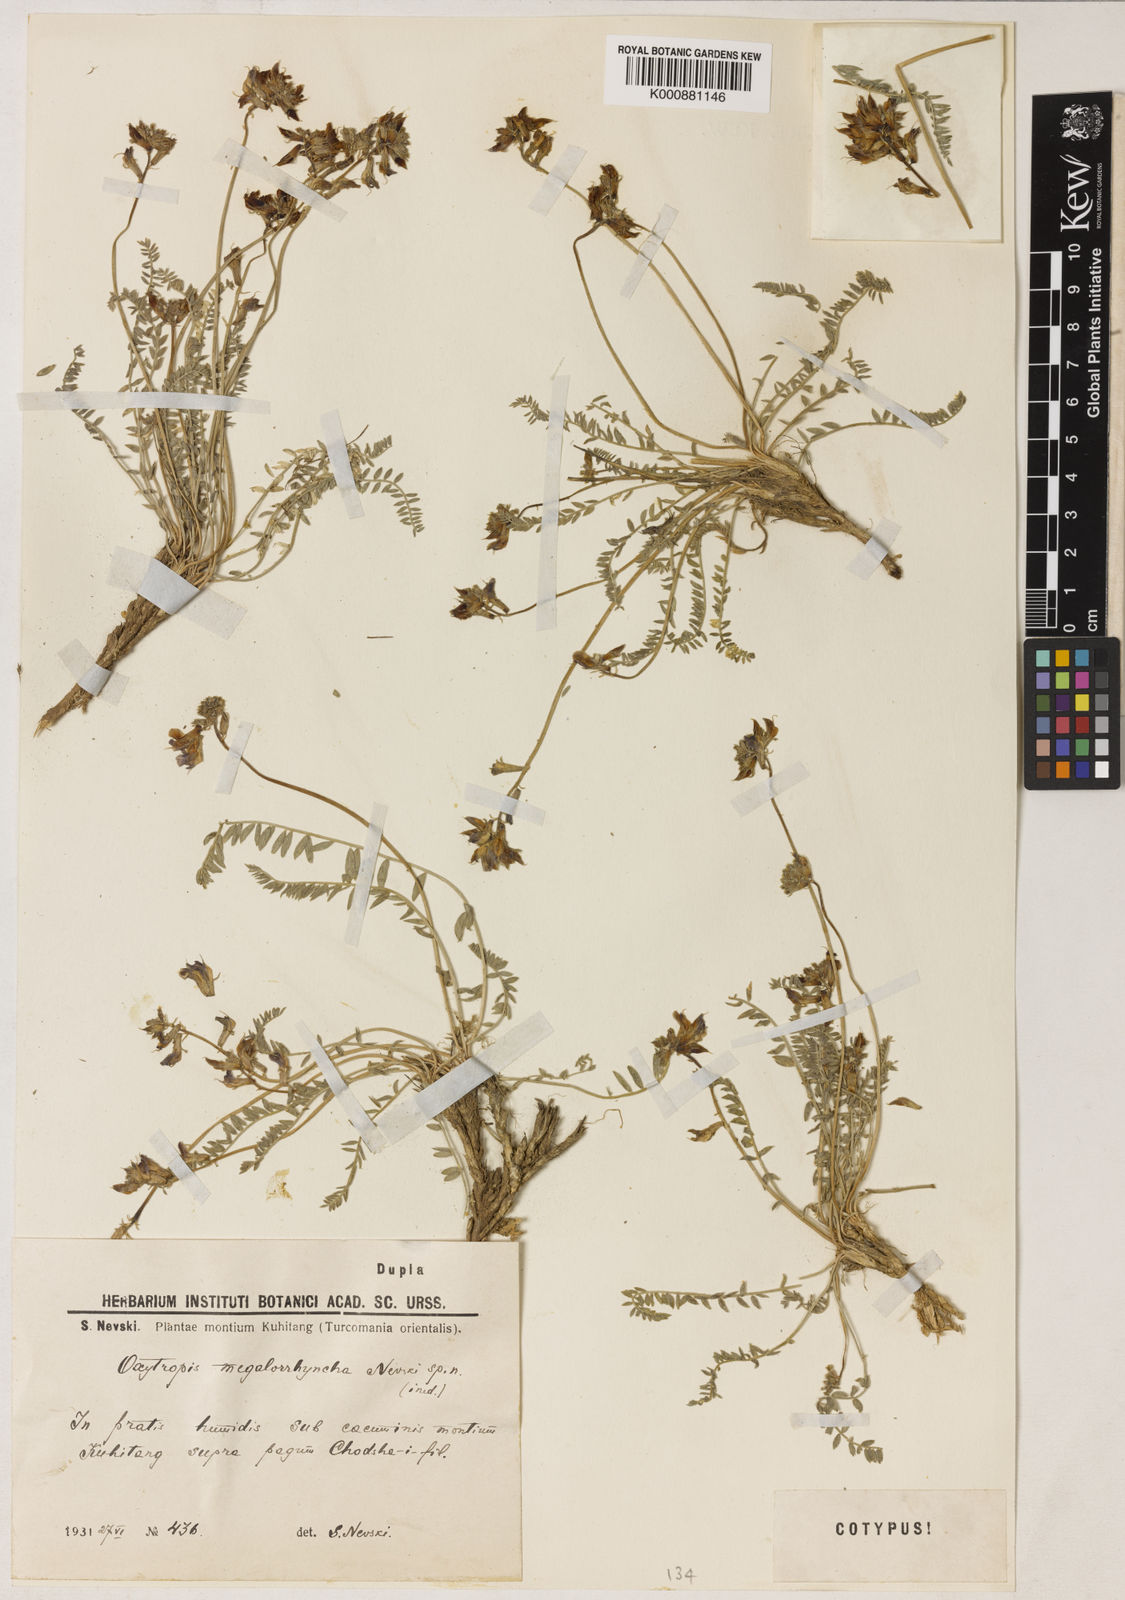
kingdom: Plantae
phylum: Tracheophyta
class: Magnoliopsida
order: Fabales
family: Fabaceae
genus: Oxytropis
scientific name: Oxytropis megalorrhyncha
